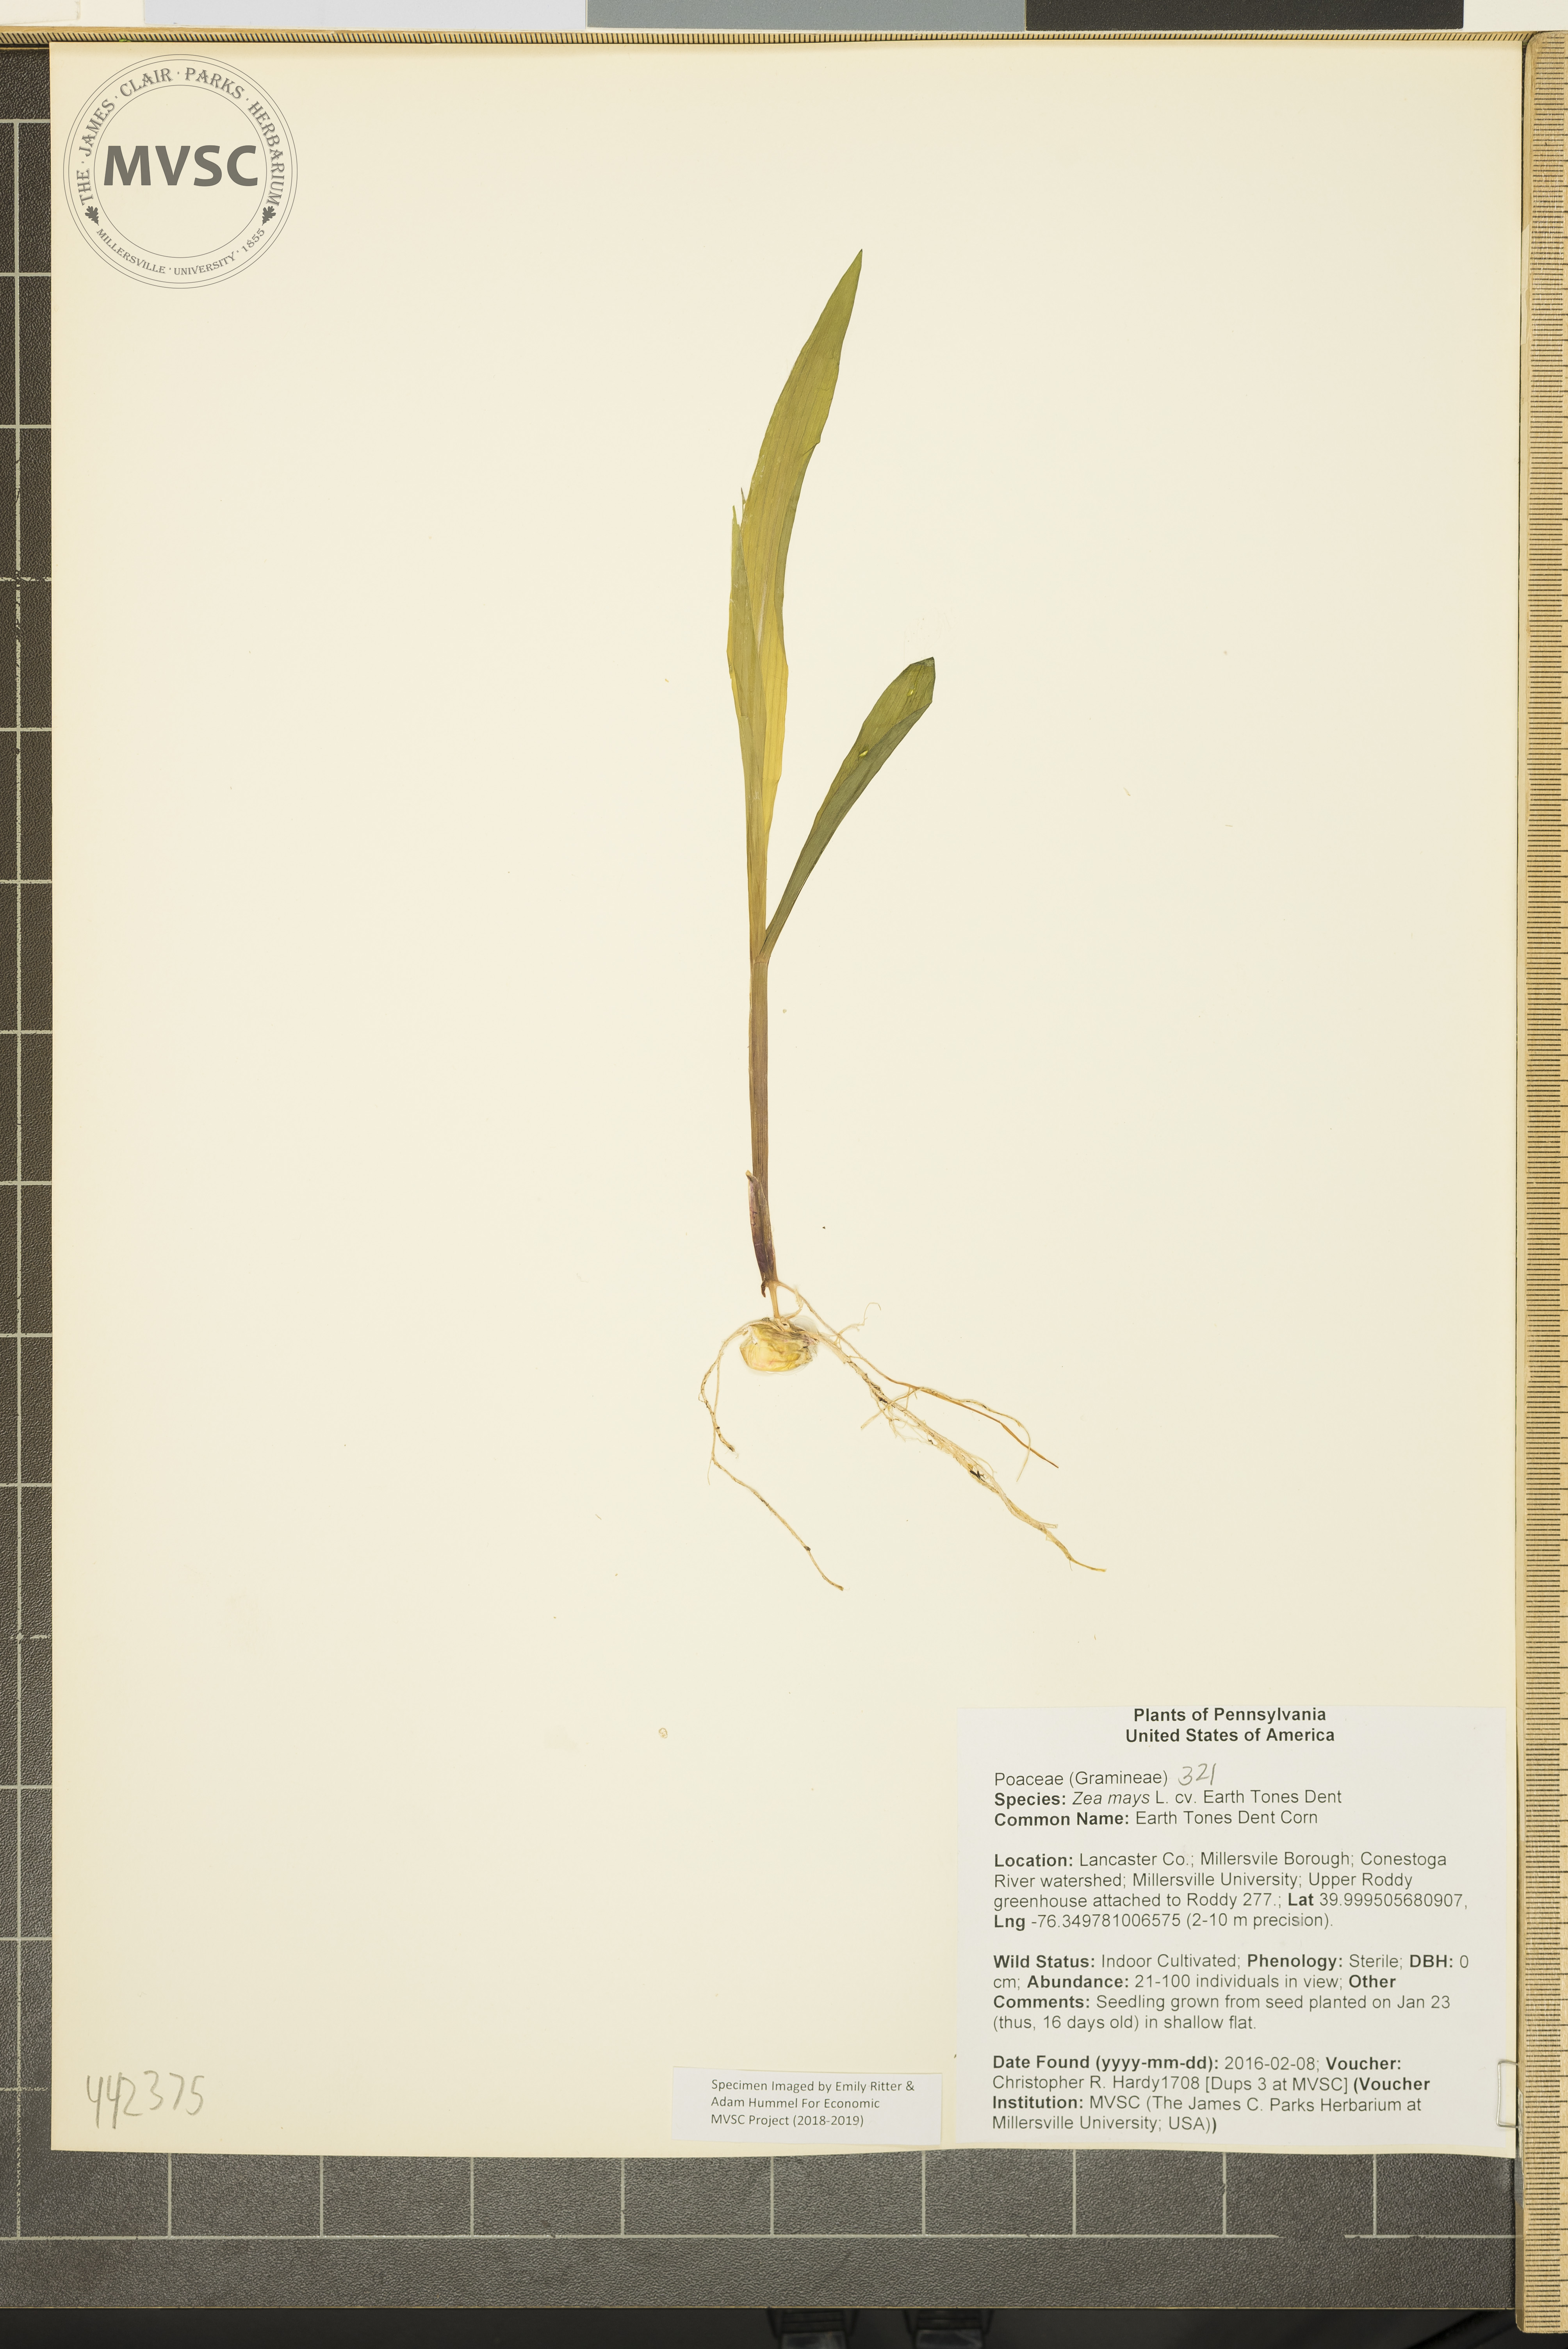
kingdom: Plantae
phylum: Tracheophyta
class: Liliopsida
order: Poales
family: Poaceae
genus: Zea
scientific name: Zea mays
